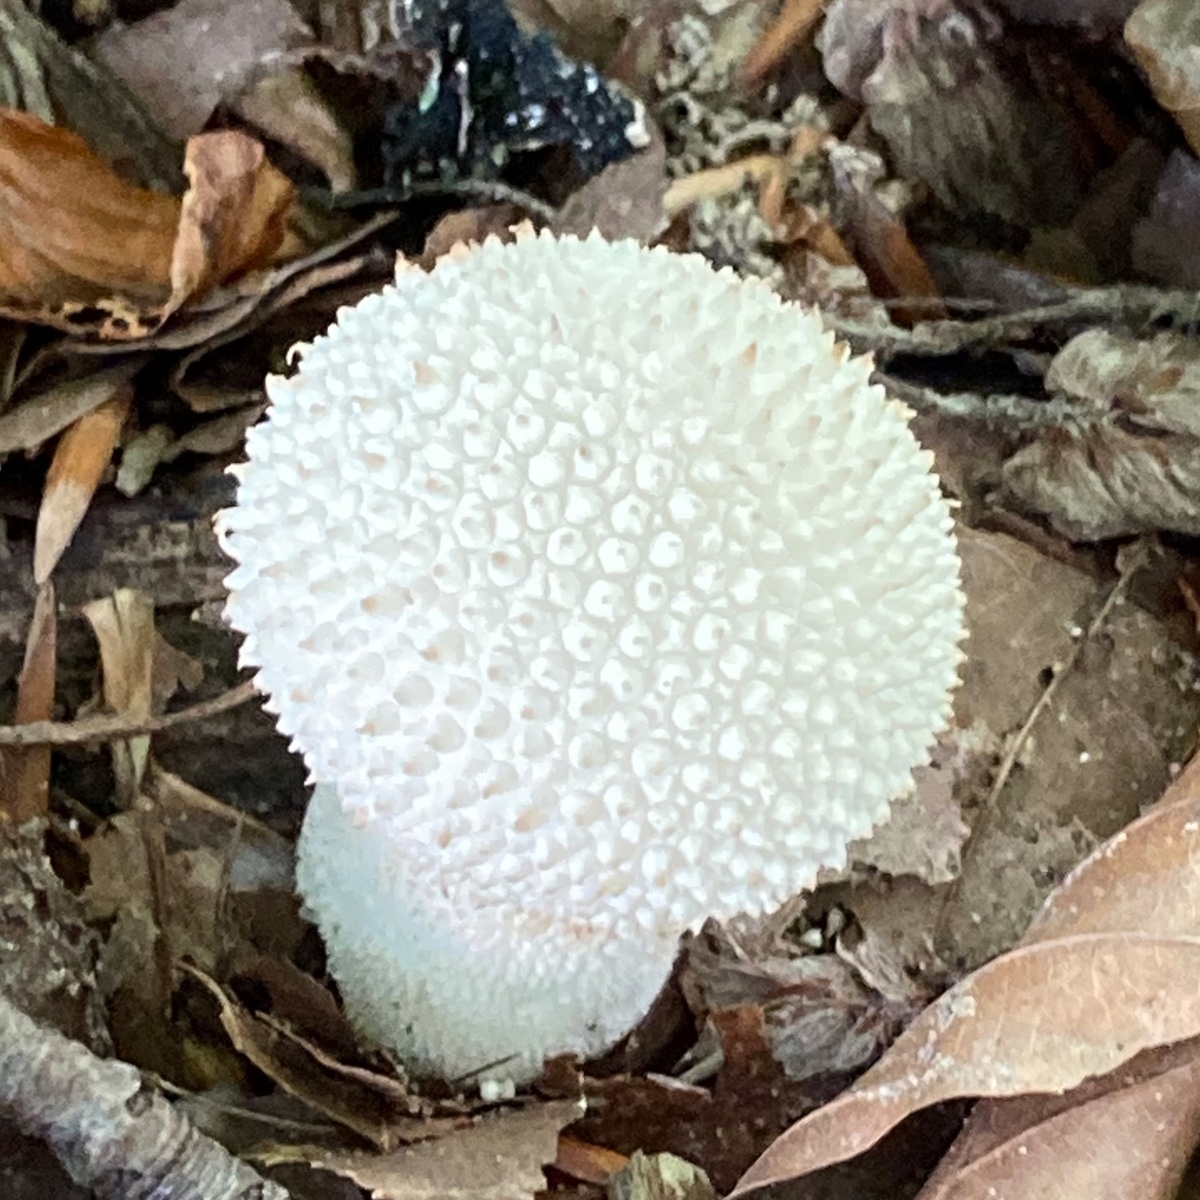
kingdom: Fungi
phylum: Basidiomycota
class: Agaricomycetes
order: Agaricales
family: Lycoperdaceae
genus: Lycoperdon
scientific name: Lycoperdon perlatum
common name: krystal-støvbold
